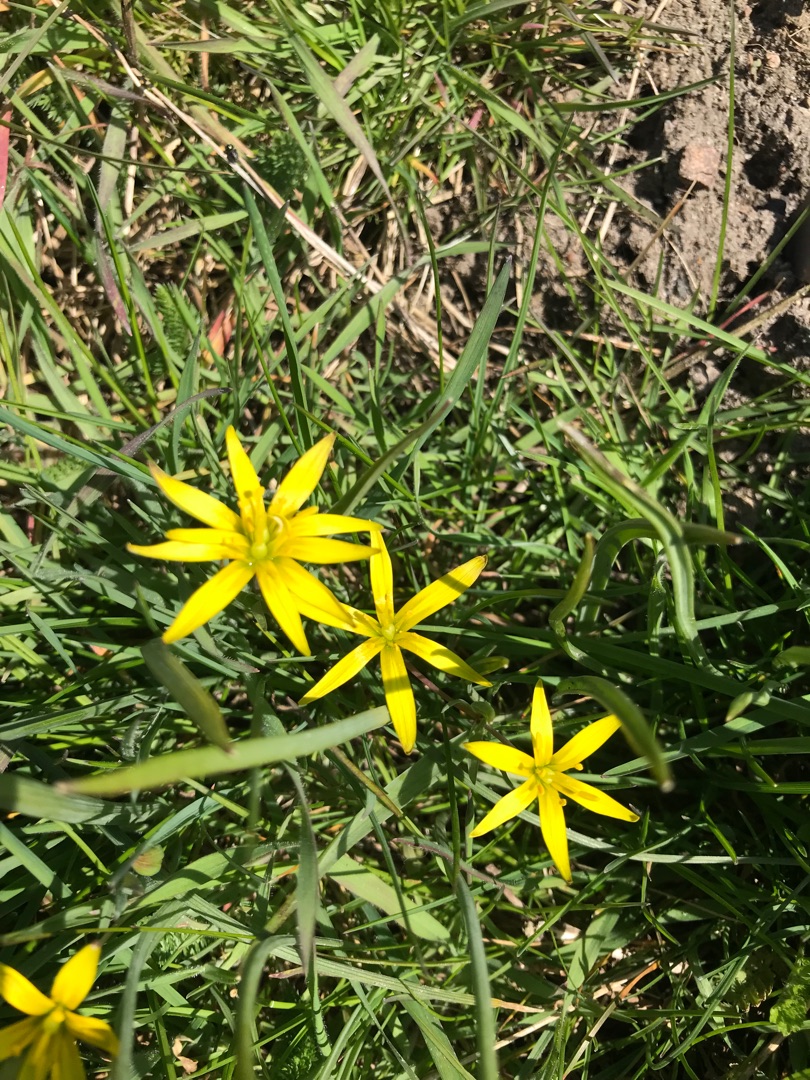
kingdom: Plantae
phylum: Tracheophyta
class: Liliopsida
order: Liliales
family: Liliaceae
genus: Gagea
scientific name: Gagea pratensis
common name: Eng-guldstjerne
